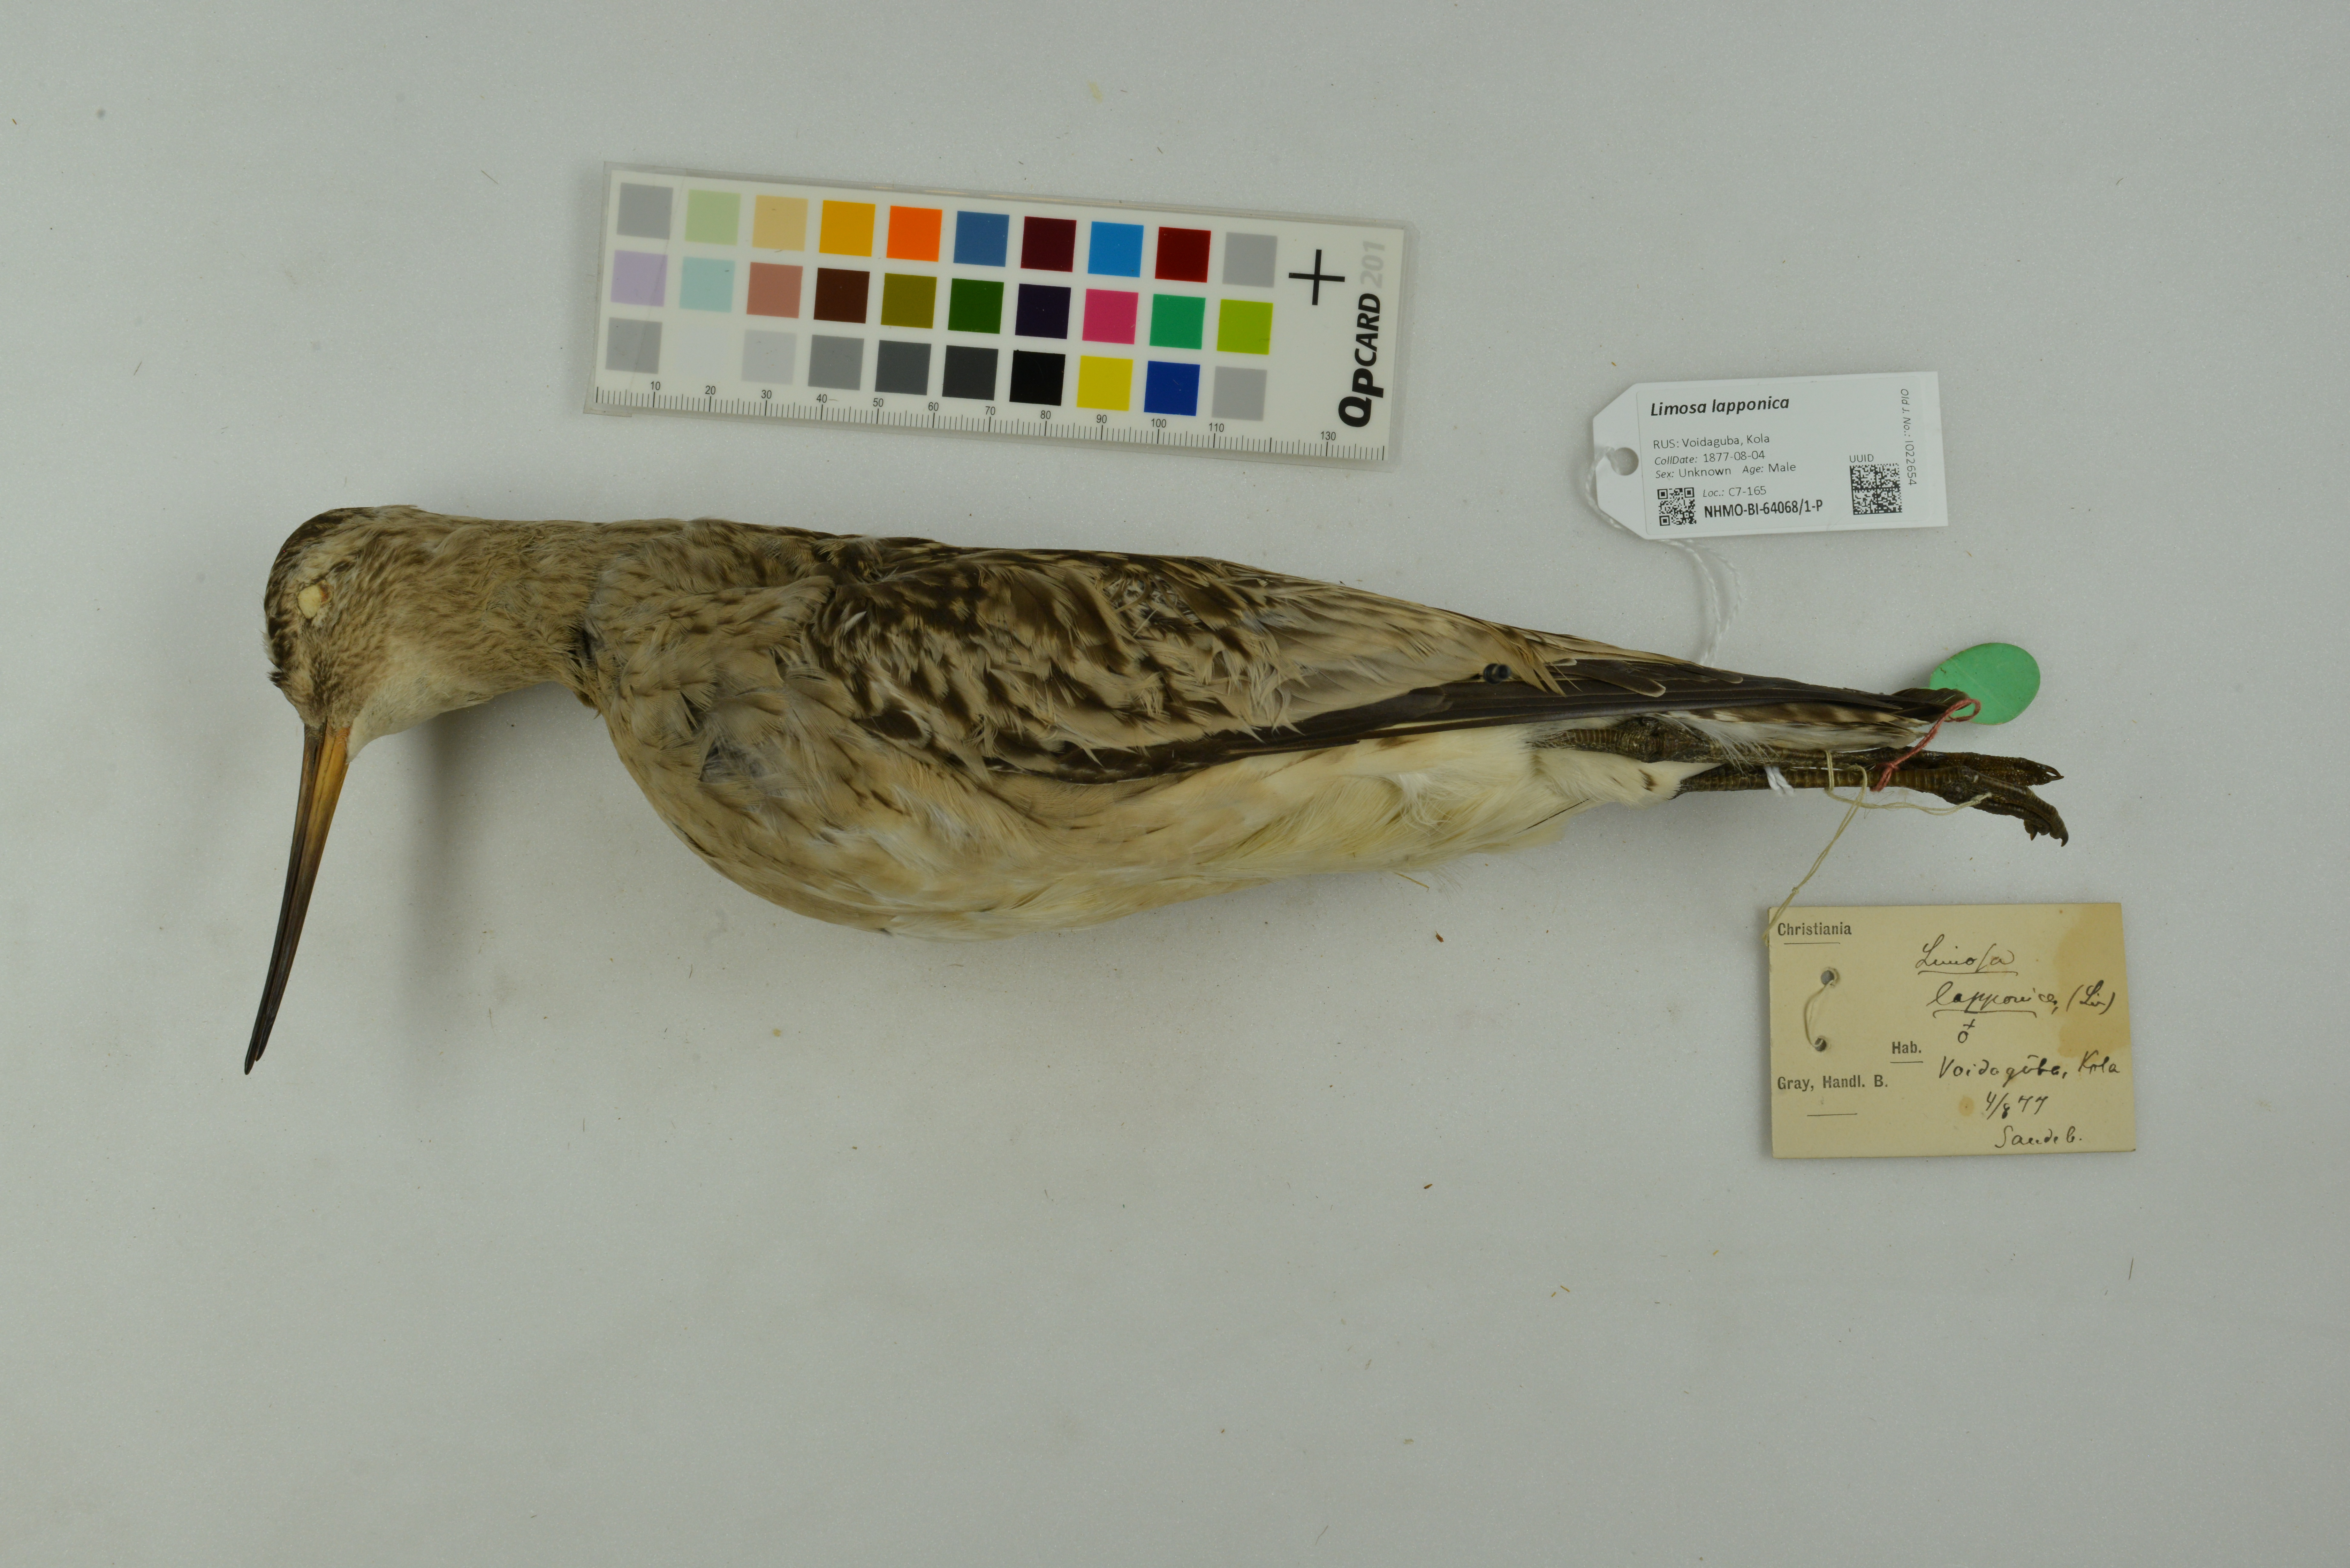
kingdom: Animalia
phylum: Chordata
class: Aves
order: Charadriiformes
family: Scolopacidae
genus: Limosa
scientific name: Limosa lapponica
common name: Bar-tailed godwit
